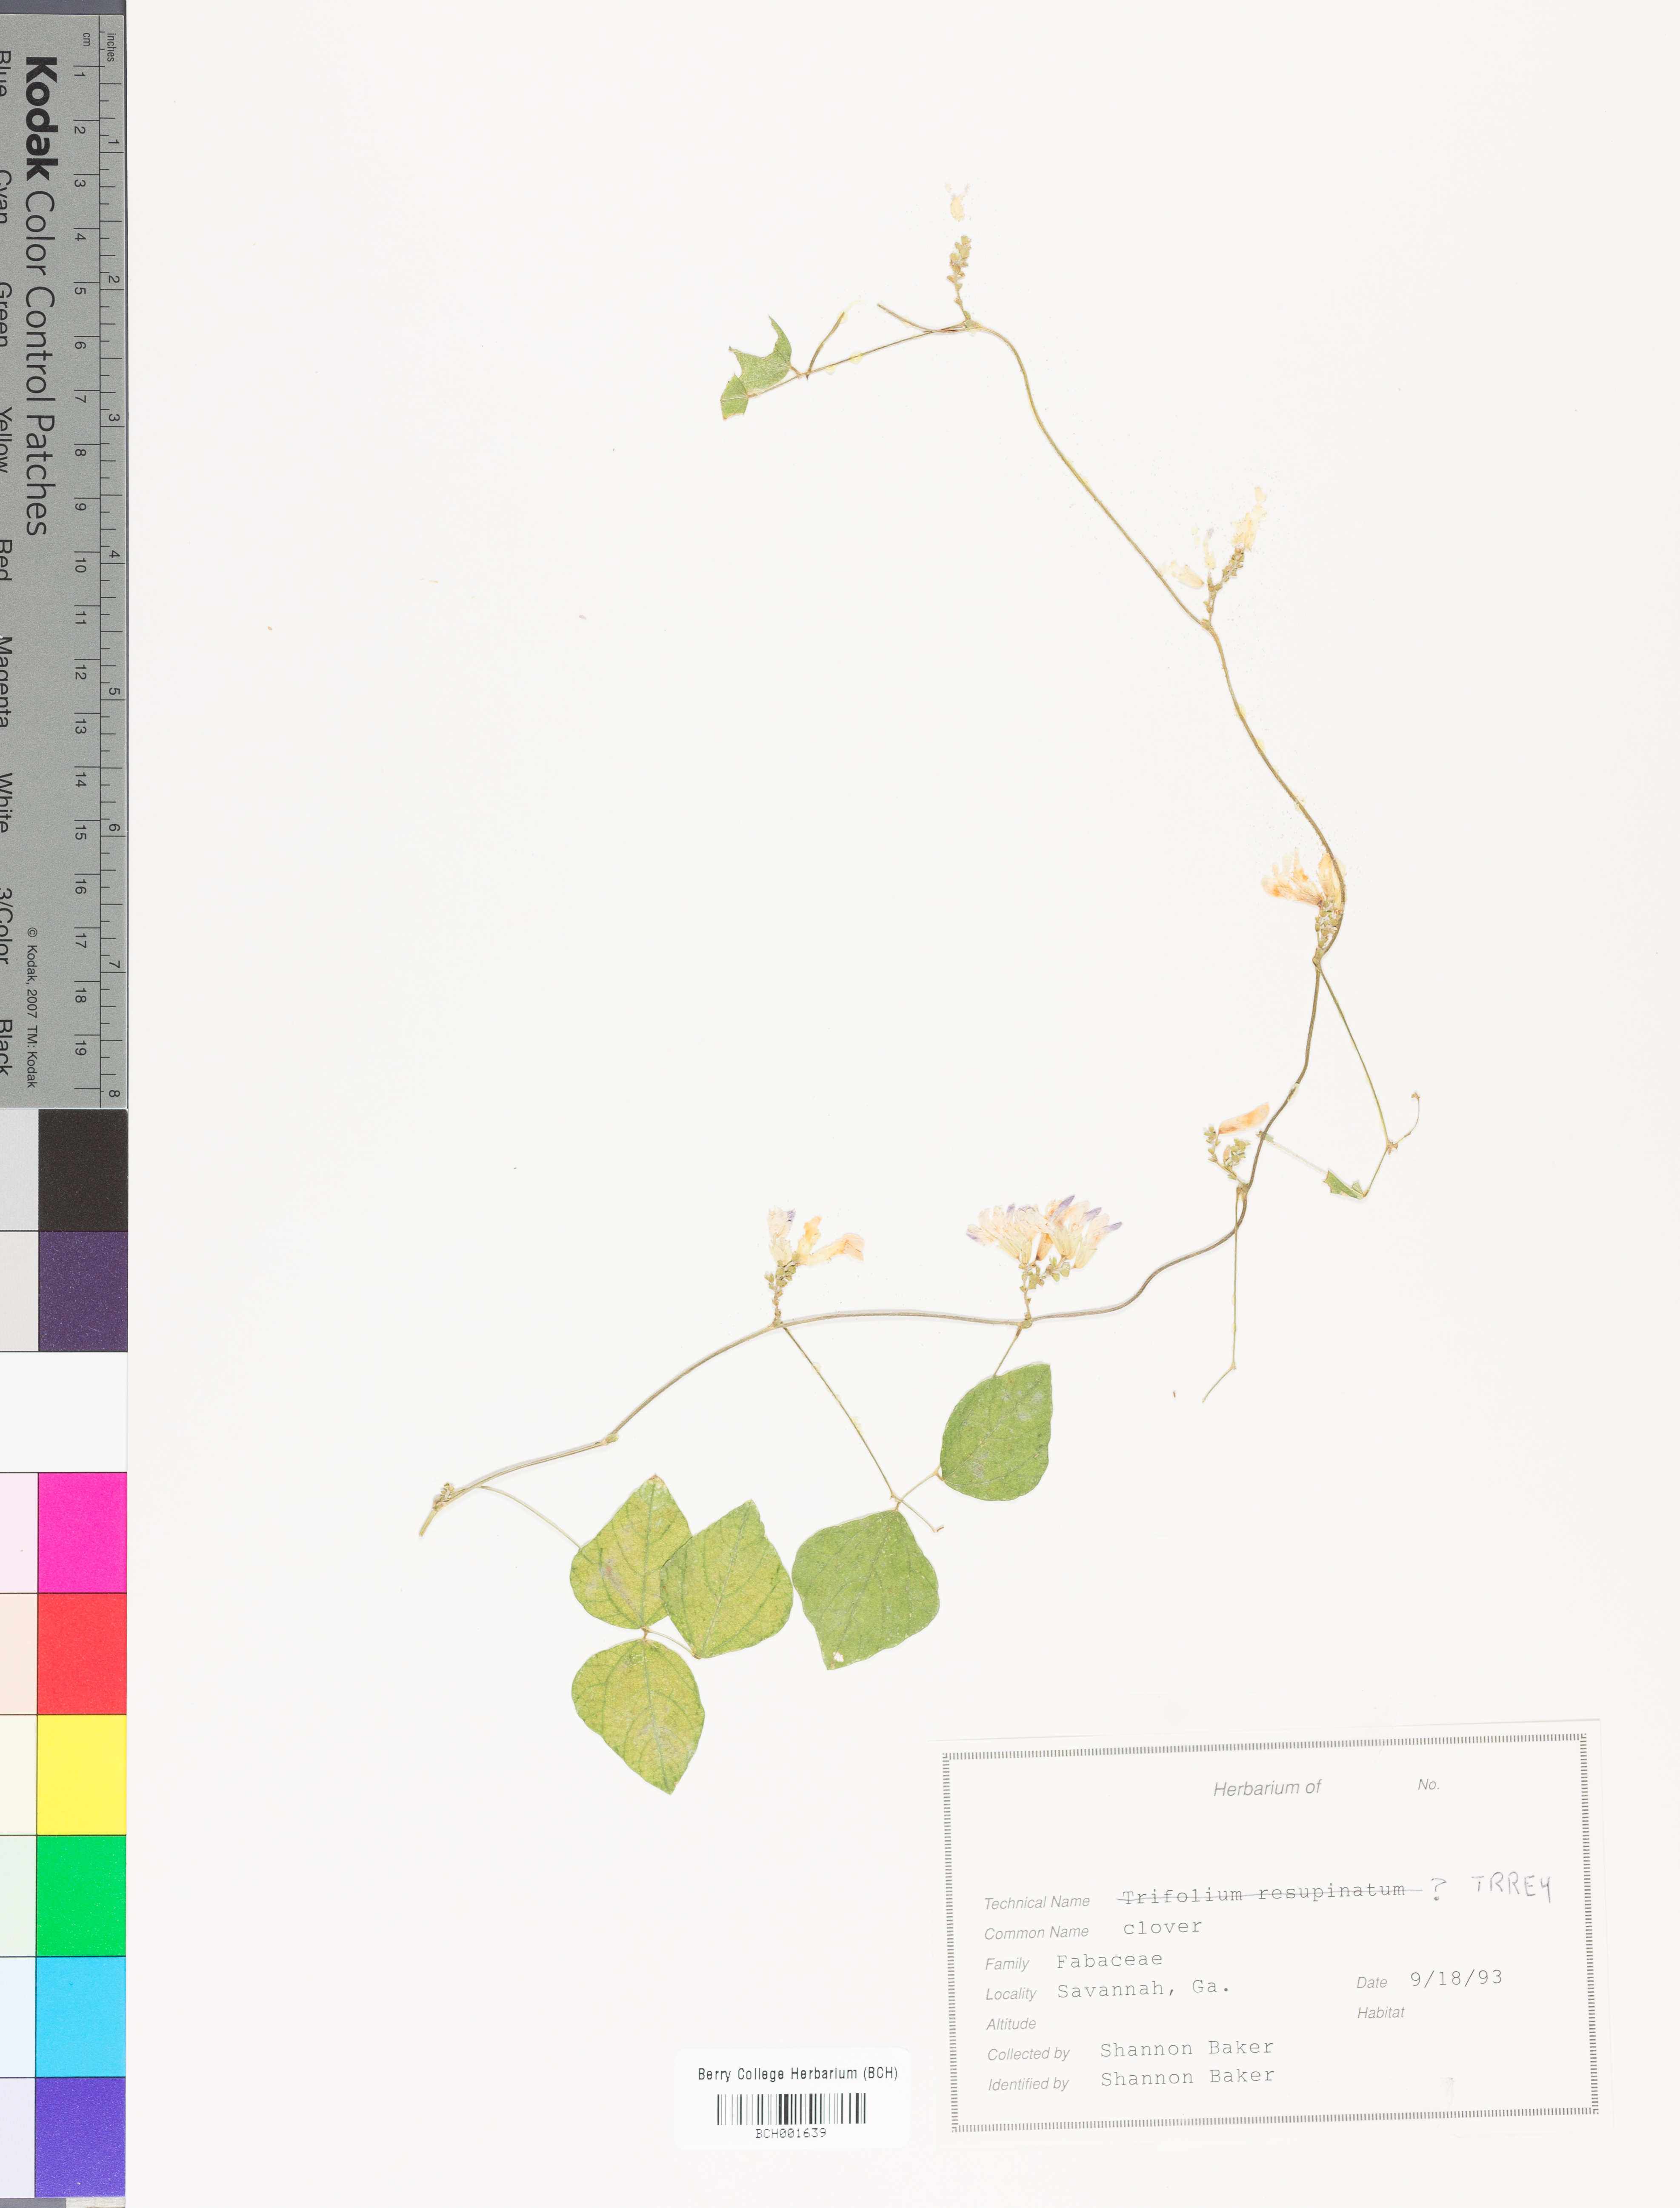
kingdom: Plantae
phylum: Tracheophyta
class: Magnoliopsida
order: Fabales
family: Fabaceae
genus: Trifolium
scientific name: Trifolium resupinatum
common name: Reversed clover
